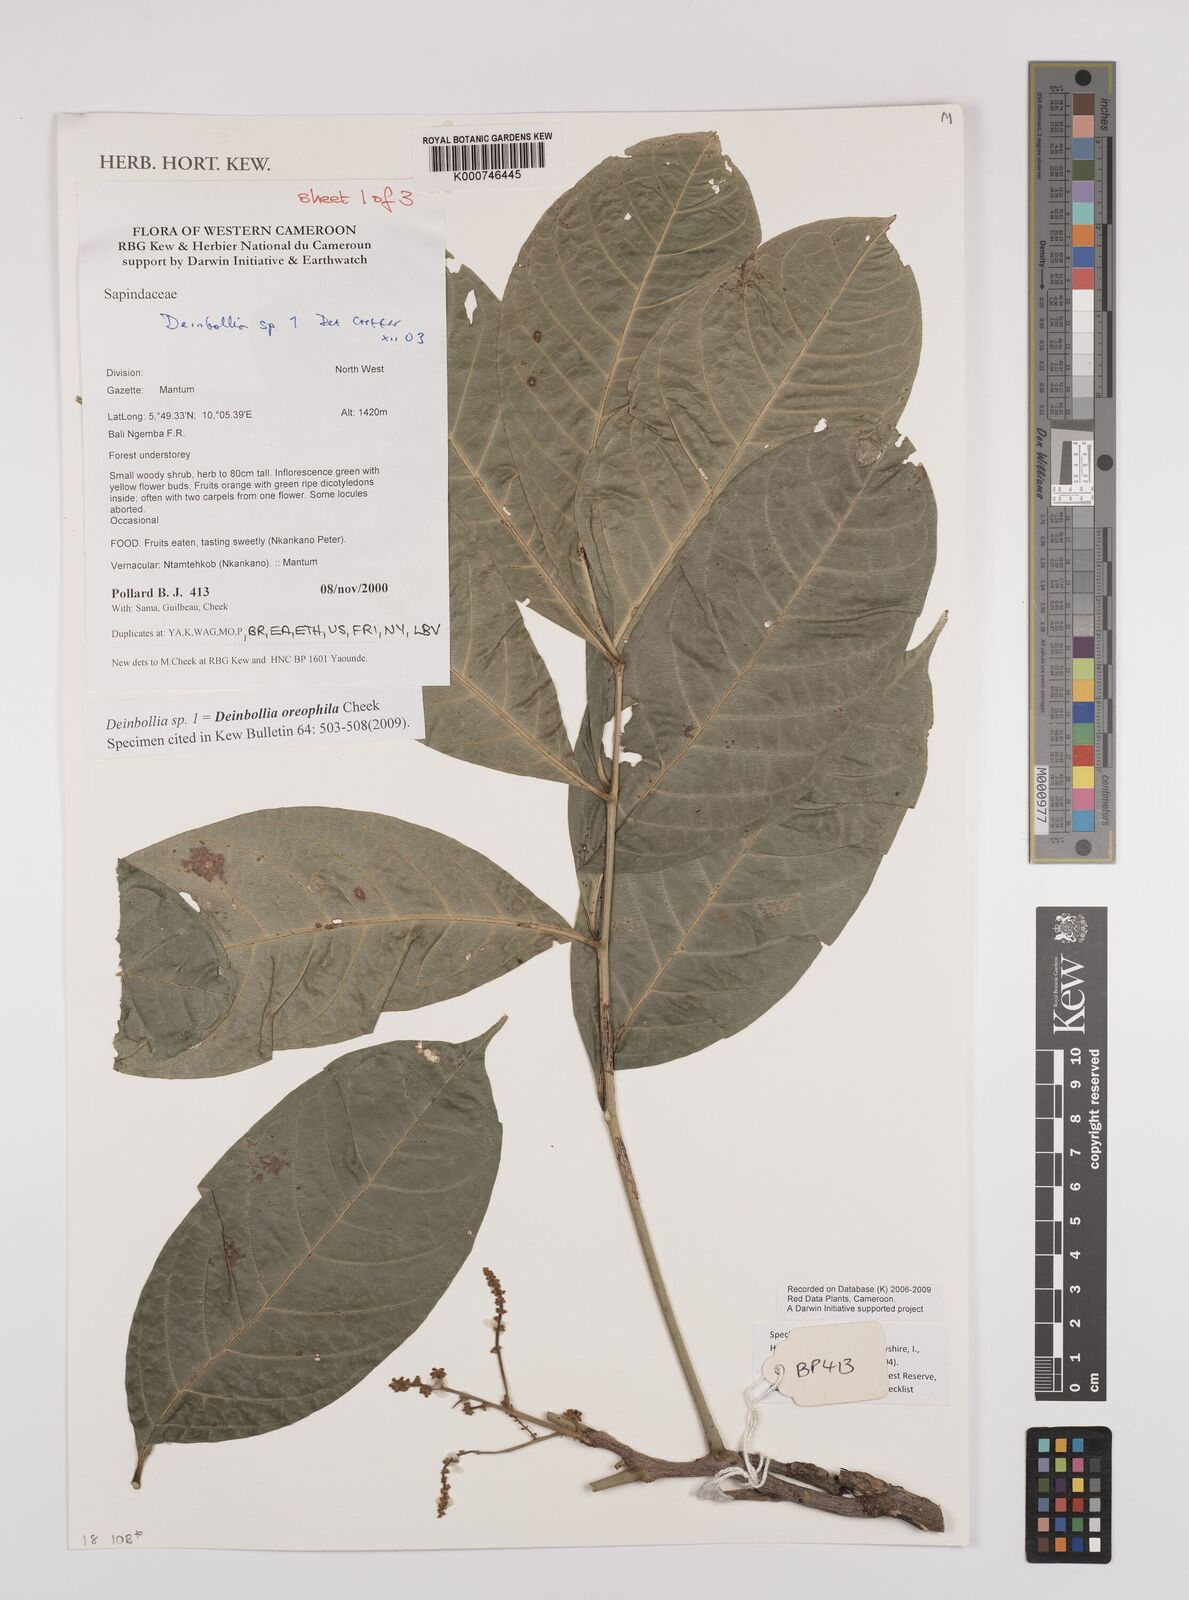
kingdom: Plantae
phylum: Tracheophyta
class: Magnoliopsida
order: Sapindales
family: Sapindaceae
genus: Deinbollia
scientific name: Deinbollia oreophila
